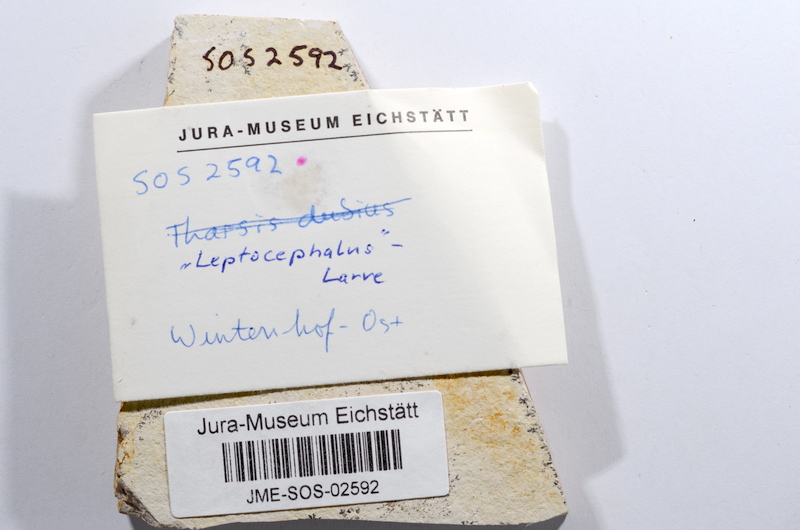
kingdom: Animalia
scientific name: Animalia
